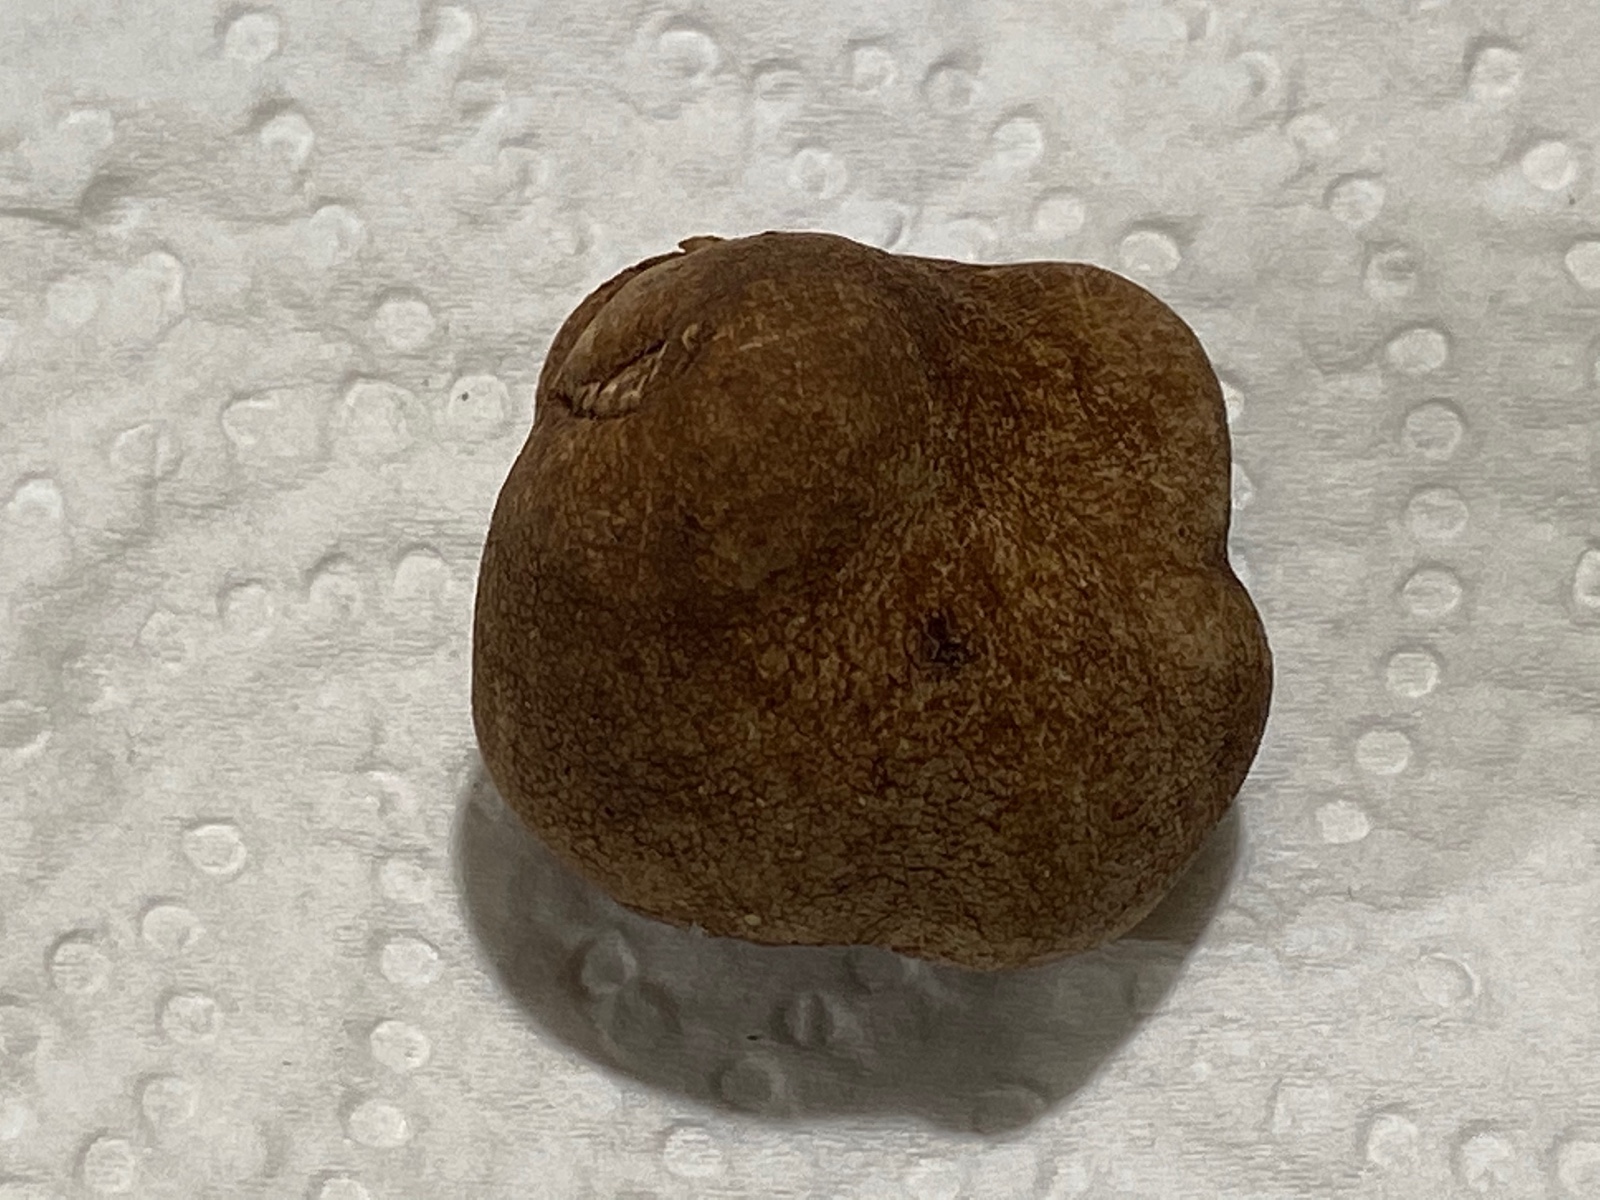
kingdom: Fungi
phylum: Ascomycota
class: Pezizomycetes
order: Pezizales
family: Tuberaceae
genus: Tuber
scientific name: Tuber rufum
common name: rødbrun trøffel
